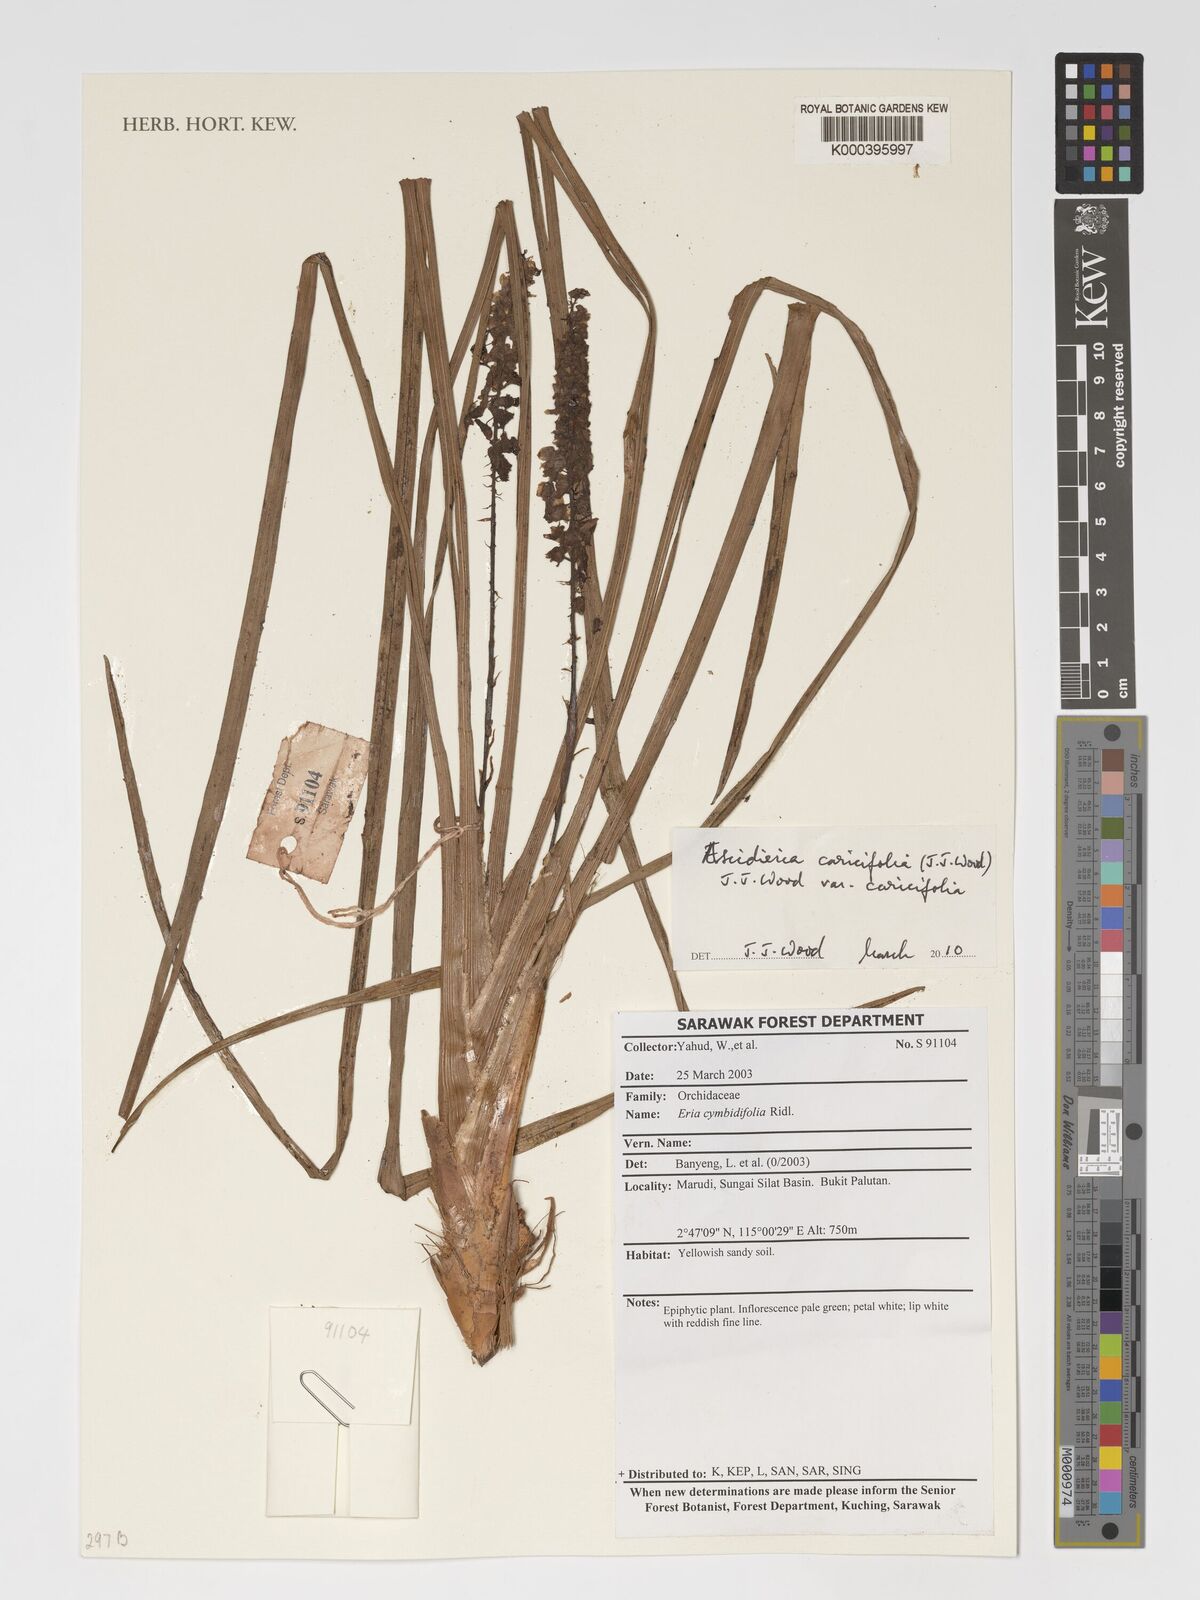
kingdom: Plantae
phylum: Tracheophyta
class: Liliopsida
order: Asparagales
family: Orchidaceae
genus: Cymboglossum
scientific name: Cymboglossum caricifolium
